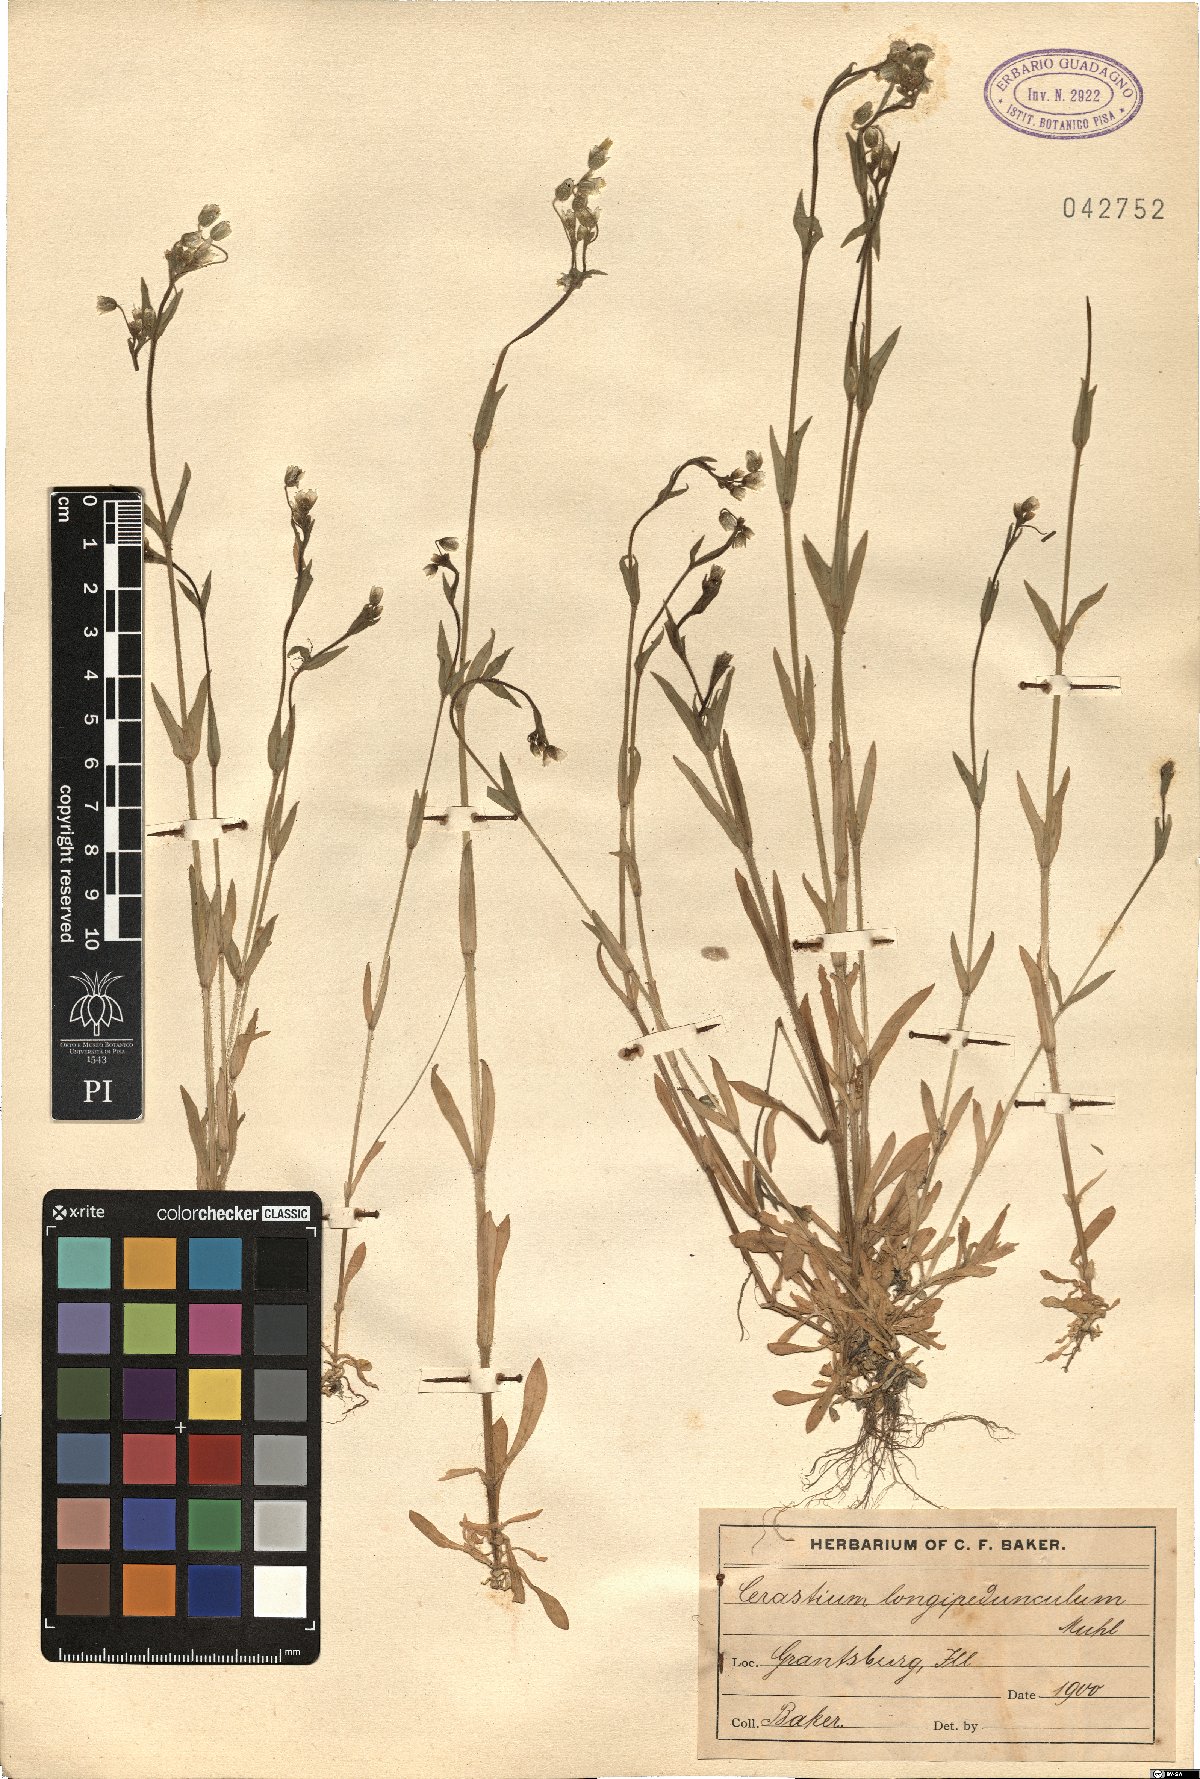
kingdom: Plantae
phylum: Tracheophyta
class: Magnoliopsida
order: Caryophyllales
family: Caryophyllaceae
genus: Cerastium
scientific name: Cerastium nutans
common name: Long-stalked chickweed
